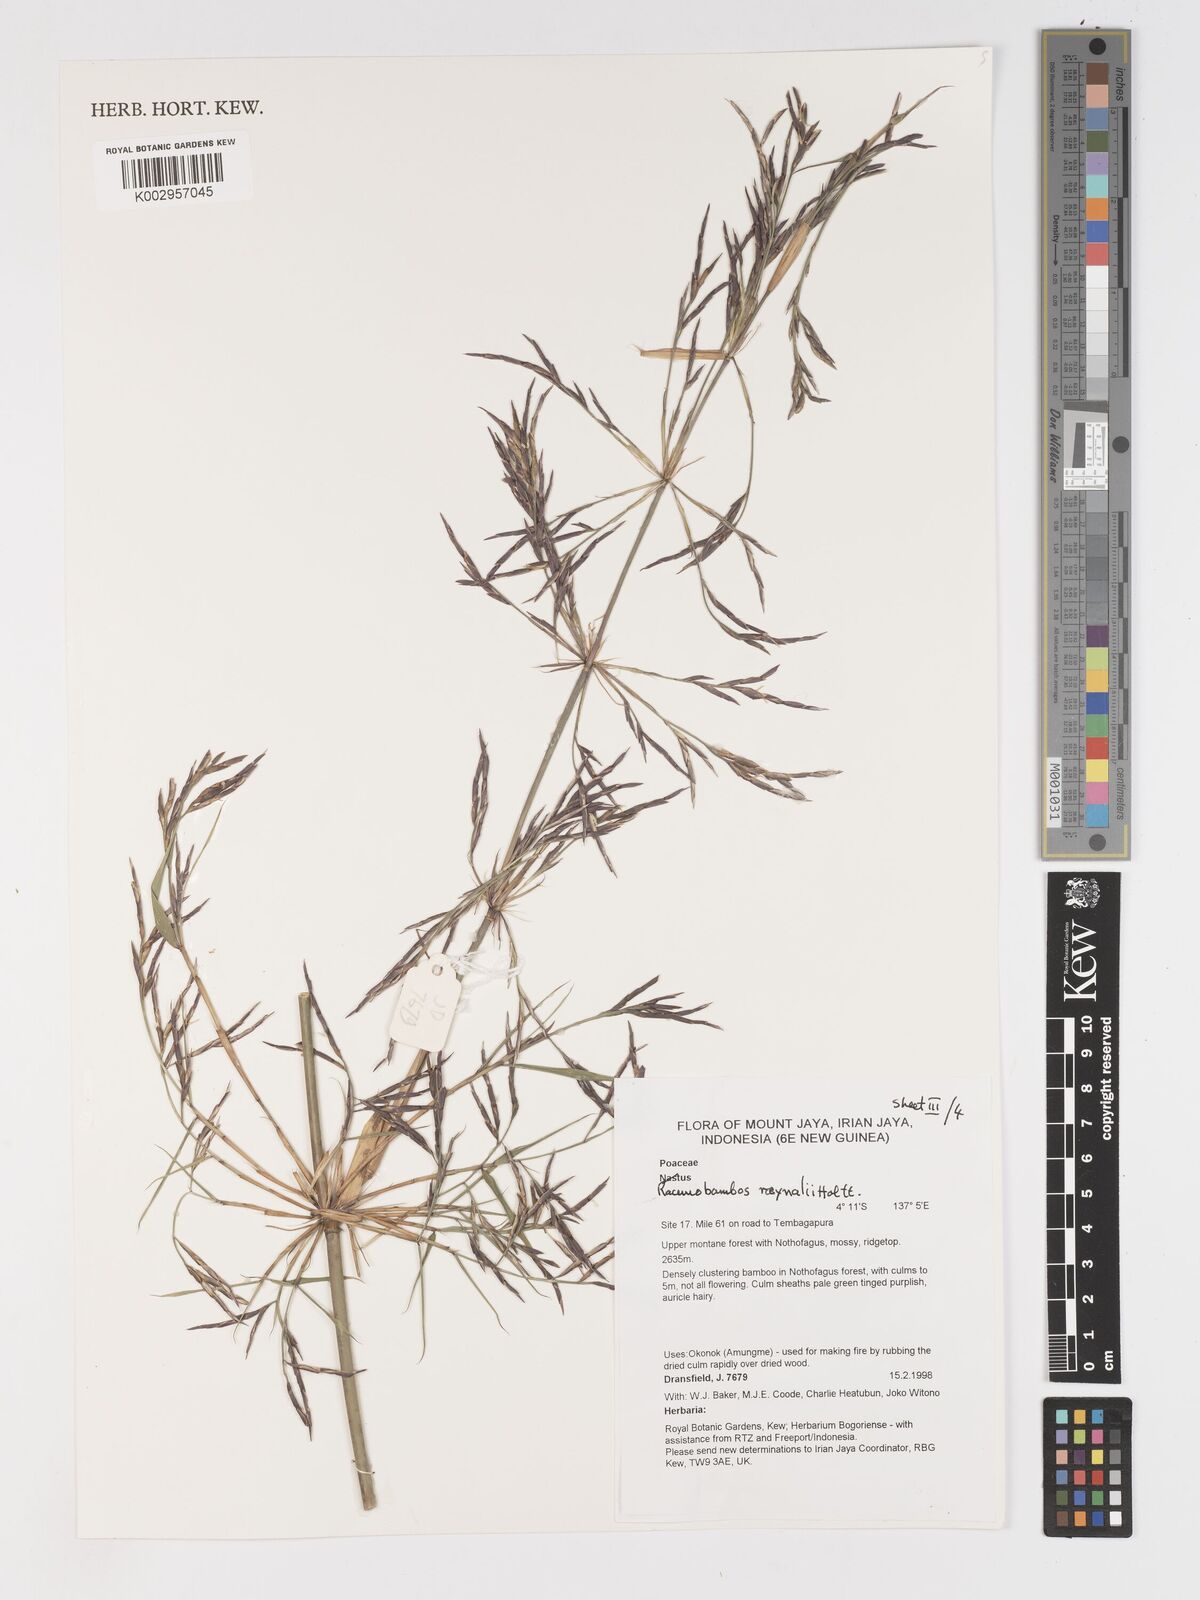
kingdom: Plantae
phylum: Tracheophyta
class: Liliopsida
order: Poales
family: Poaceae
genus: Racemobambos
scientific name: Racemobambos raynalii
